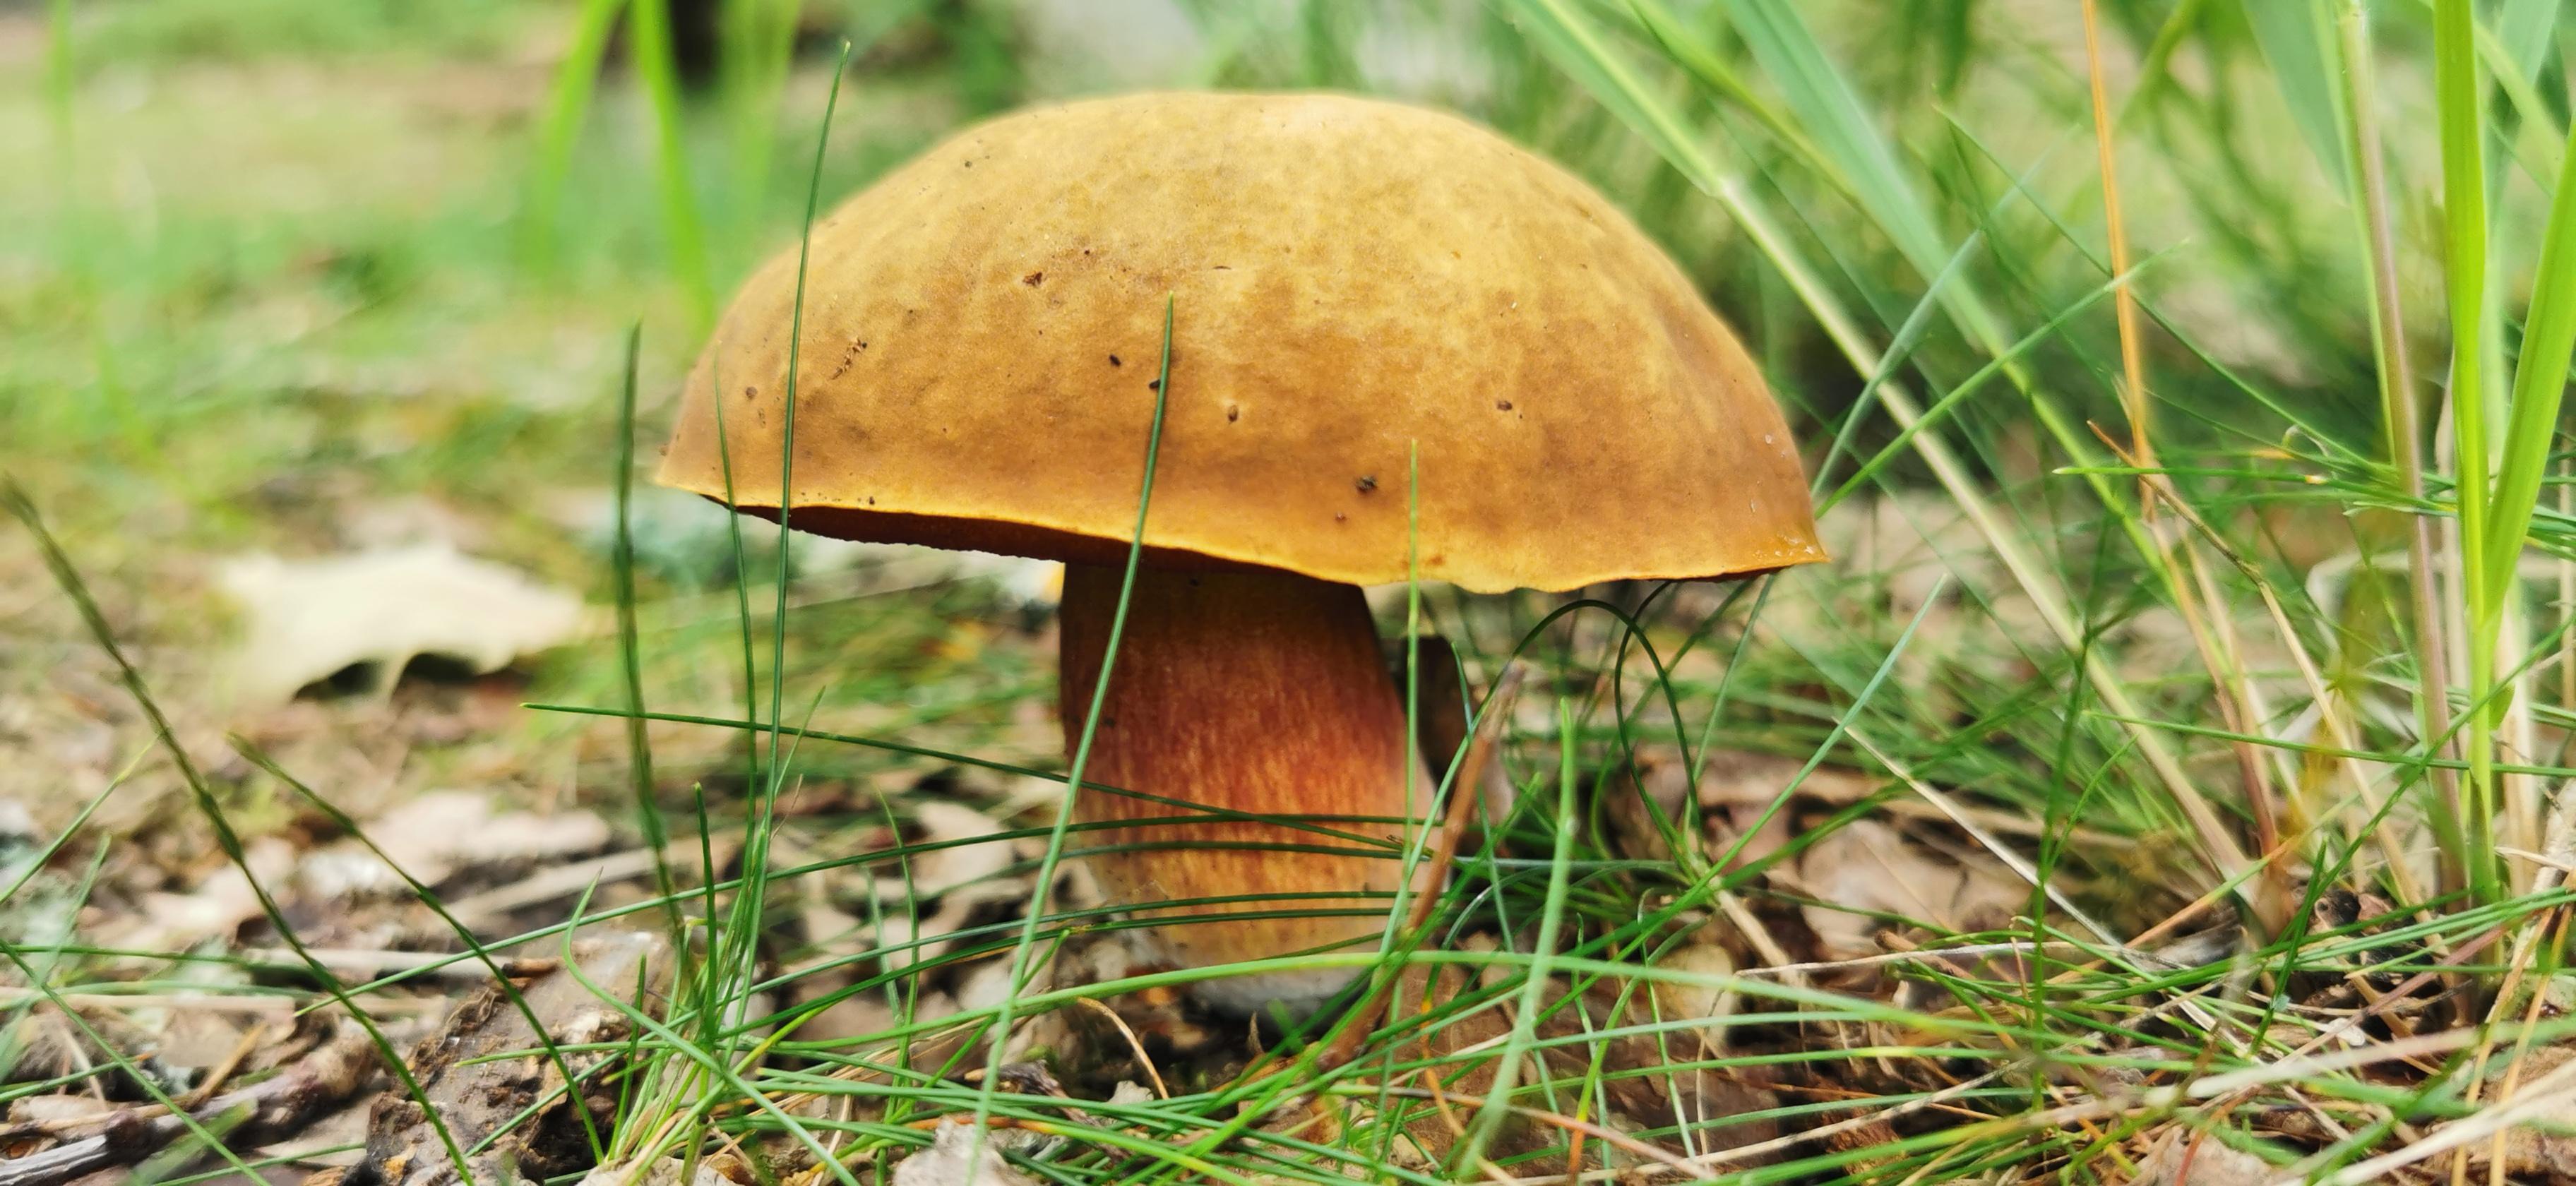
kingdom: Fungi
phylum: Basidiomycota
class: Agaricomycetes
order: Boletales
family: Boletaceae
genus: Neoboletus
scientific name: Neoboletus erythropus
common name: punktstokket indigorørhat
